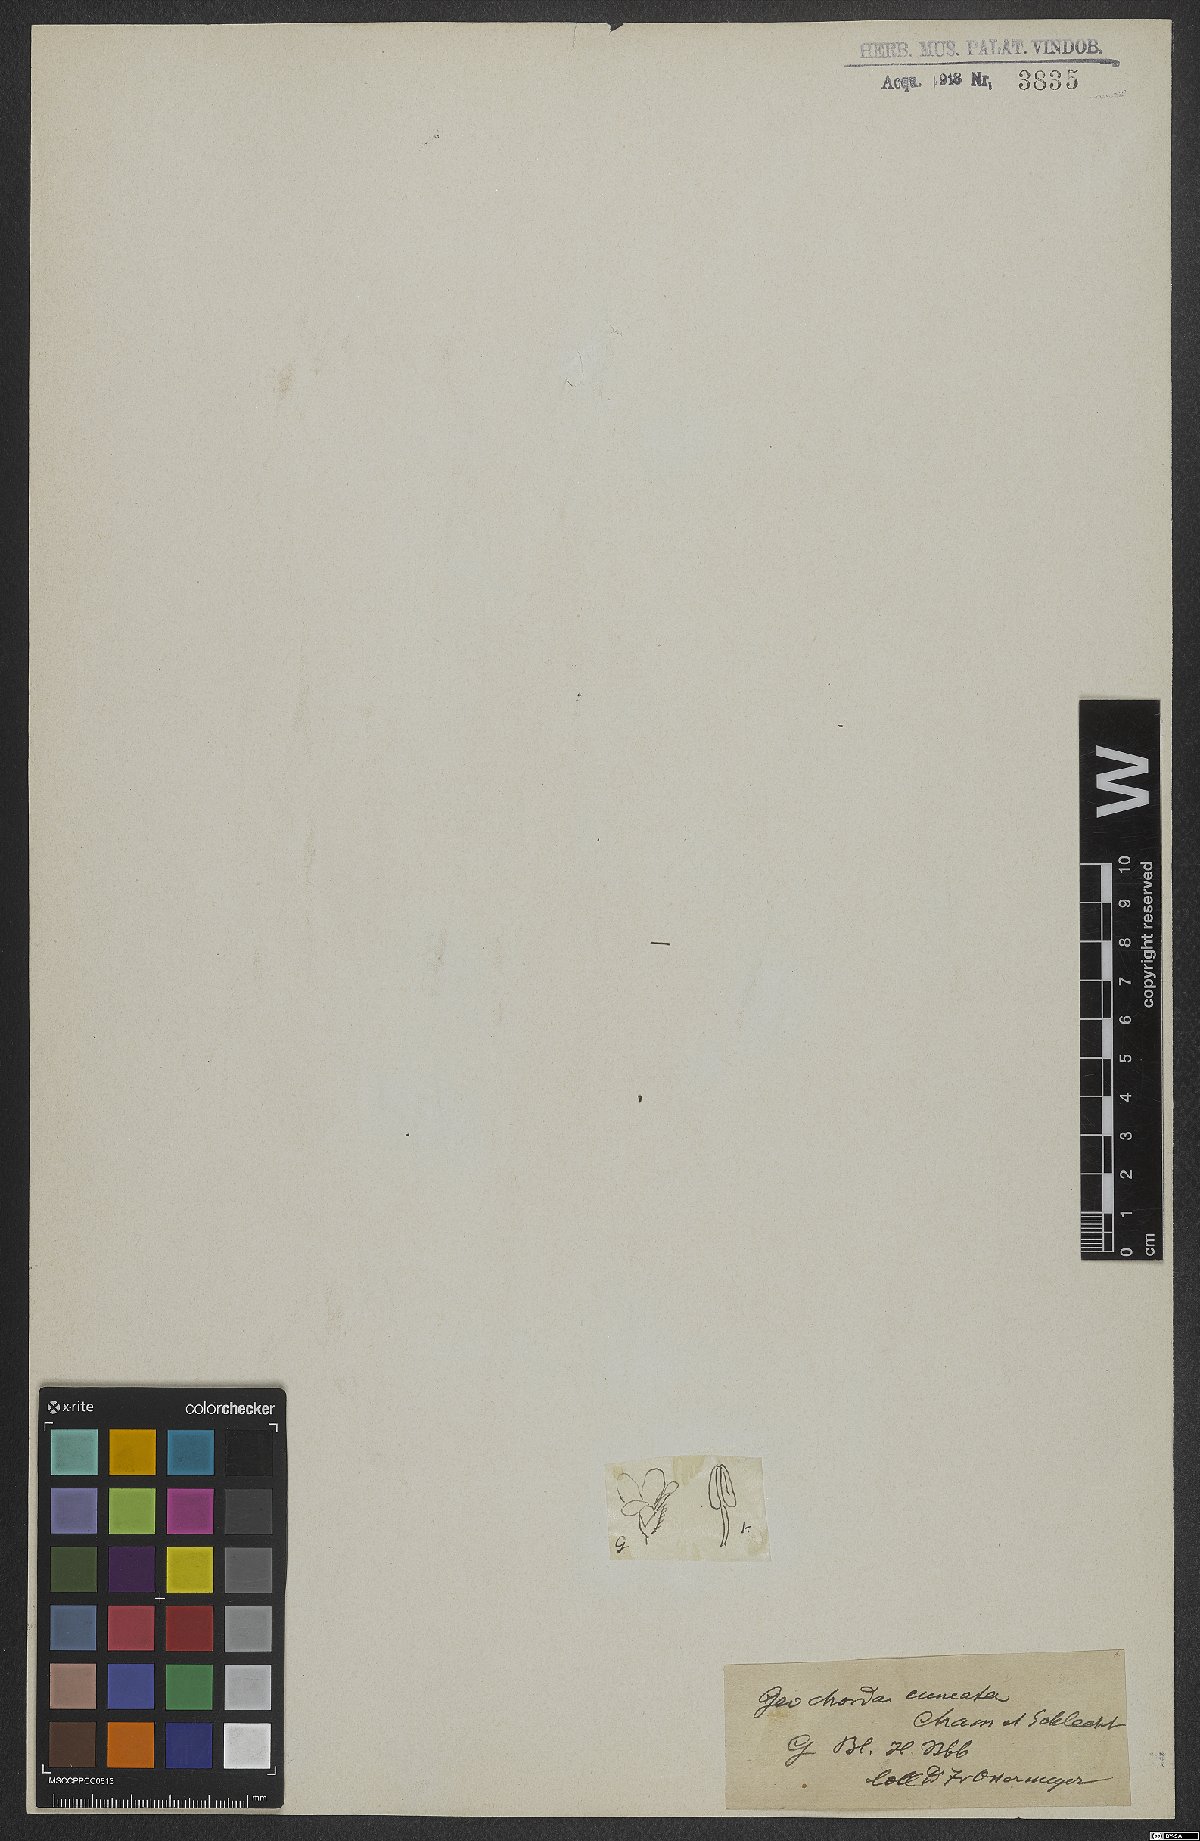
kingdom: Plantae
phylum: Tracheophyta
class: Magnoliopsida
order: Lamiales
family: Plantaginaceae
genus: Conobea
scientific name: Conobea glechomoides
